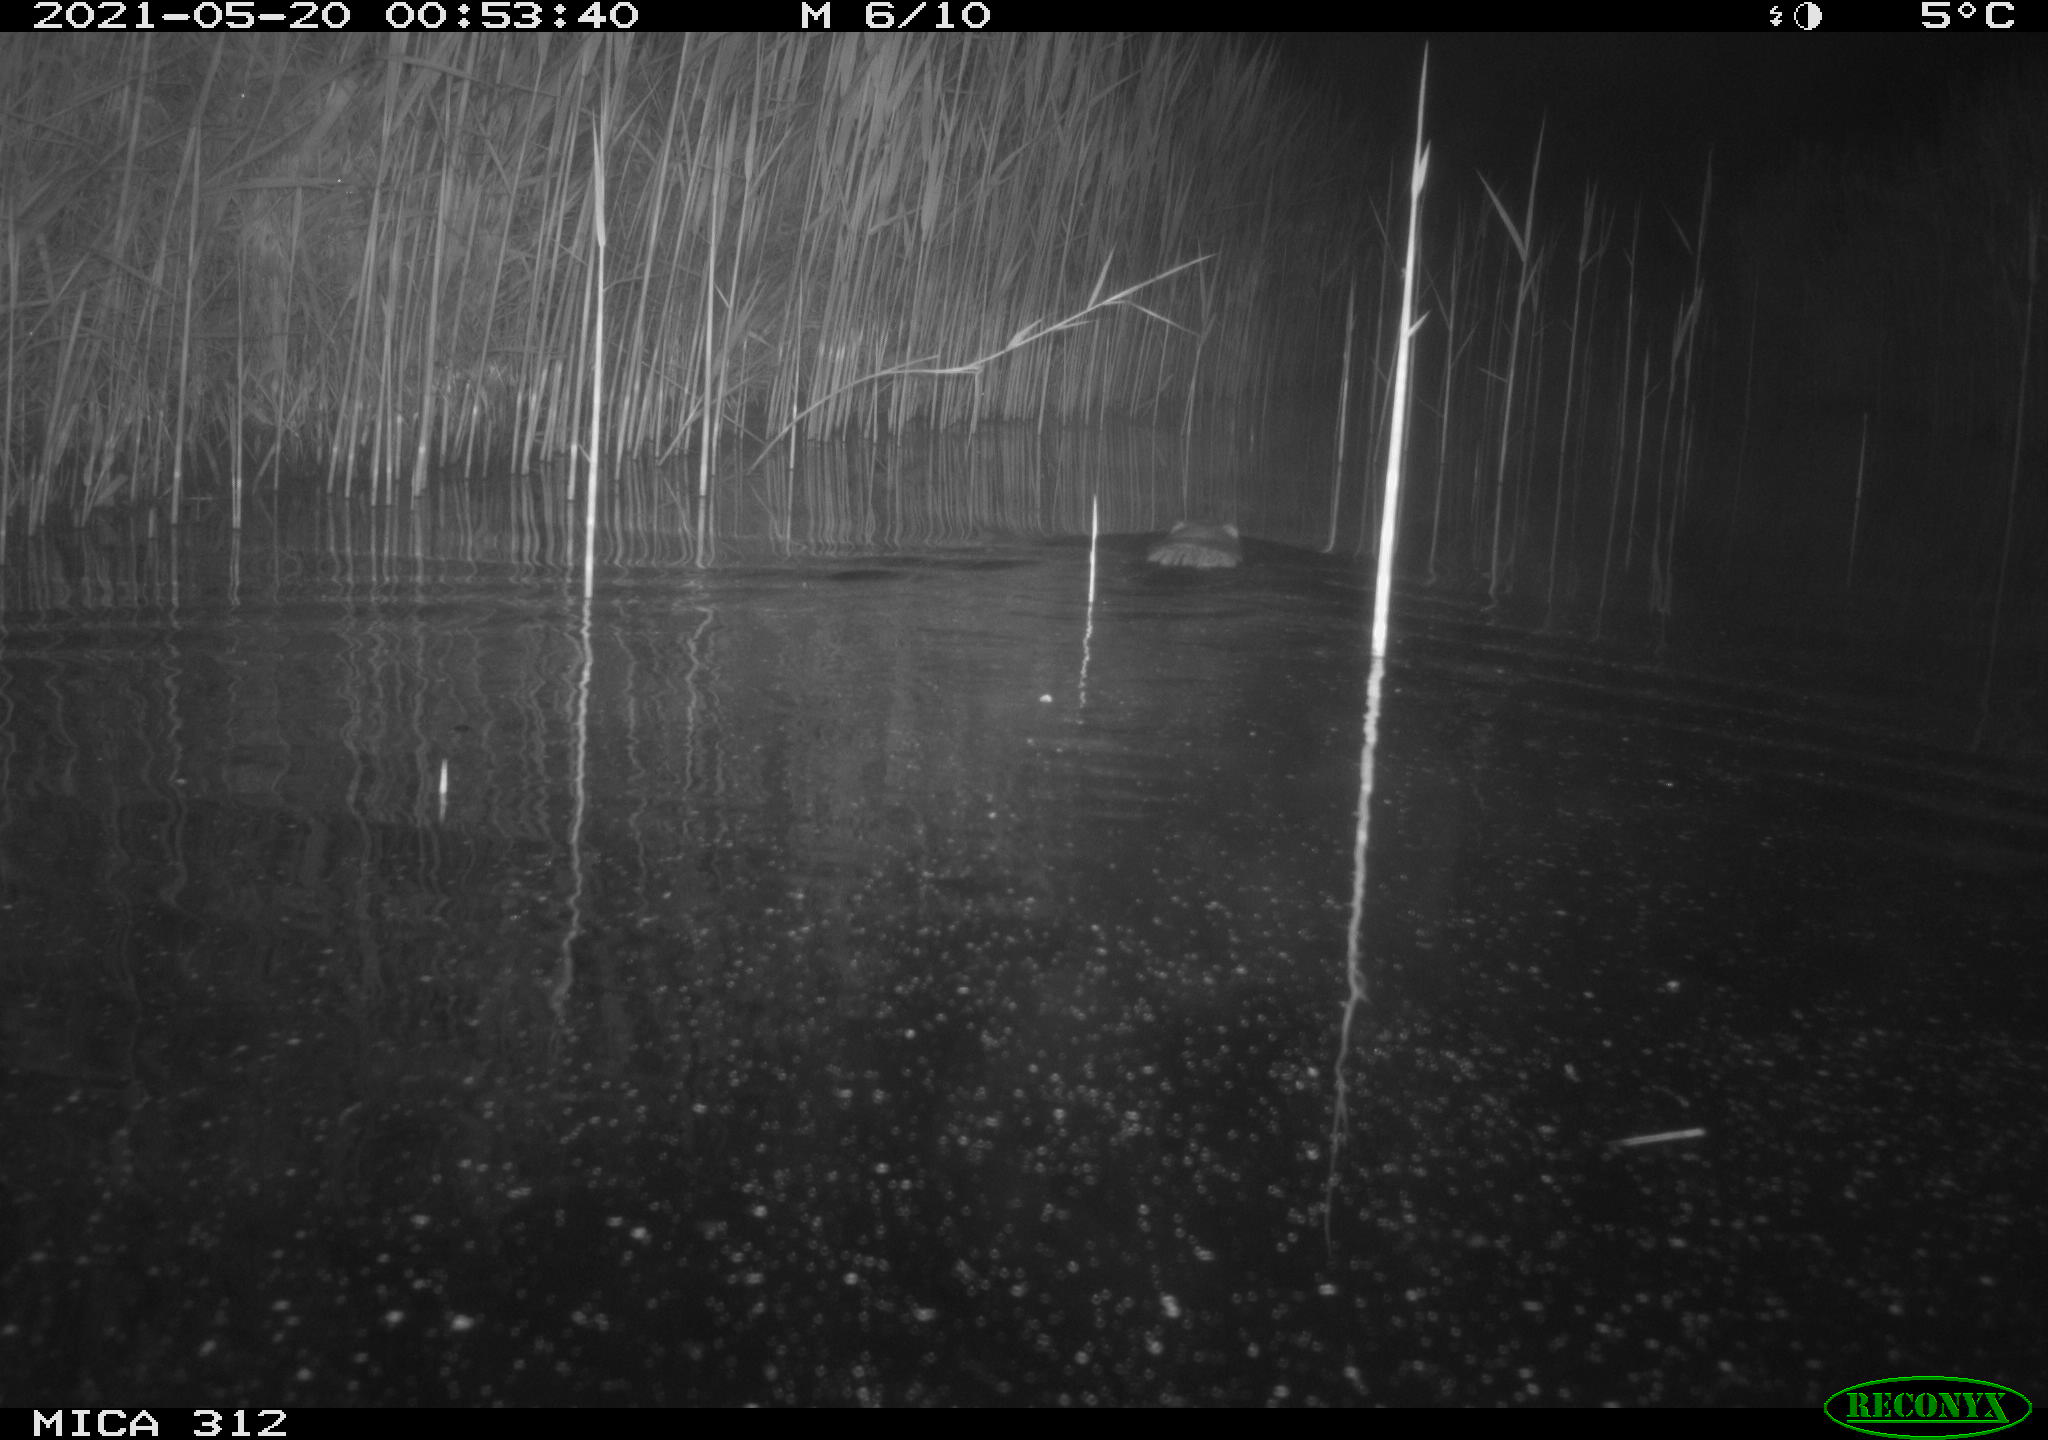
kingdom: Animalia
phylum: Chordata
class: Mammalia
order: Rodentia
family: Cricetidae
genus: Ondatra
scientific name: Ondatra zibethicus
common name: Muskrat
